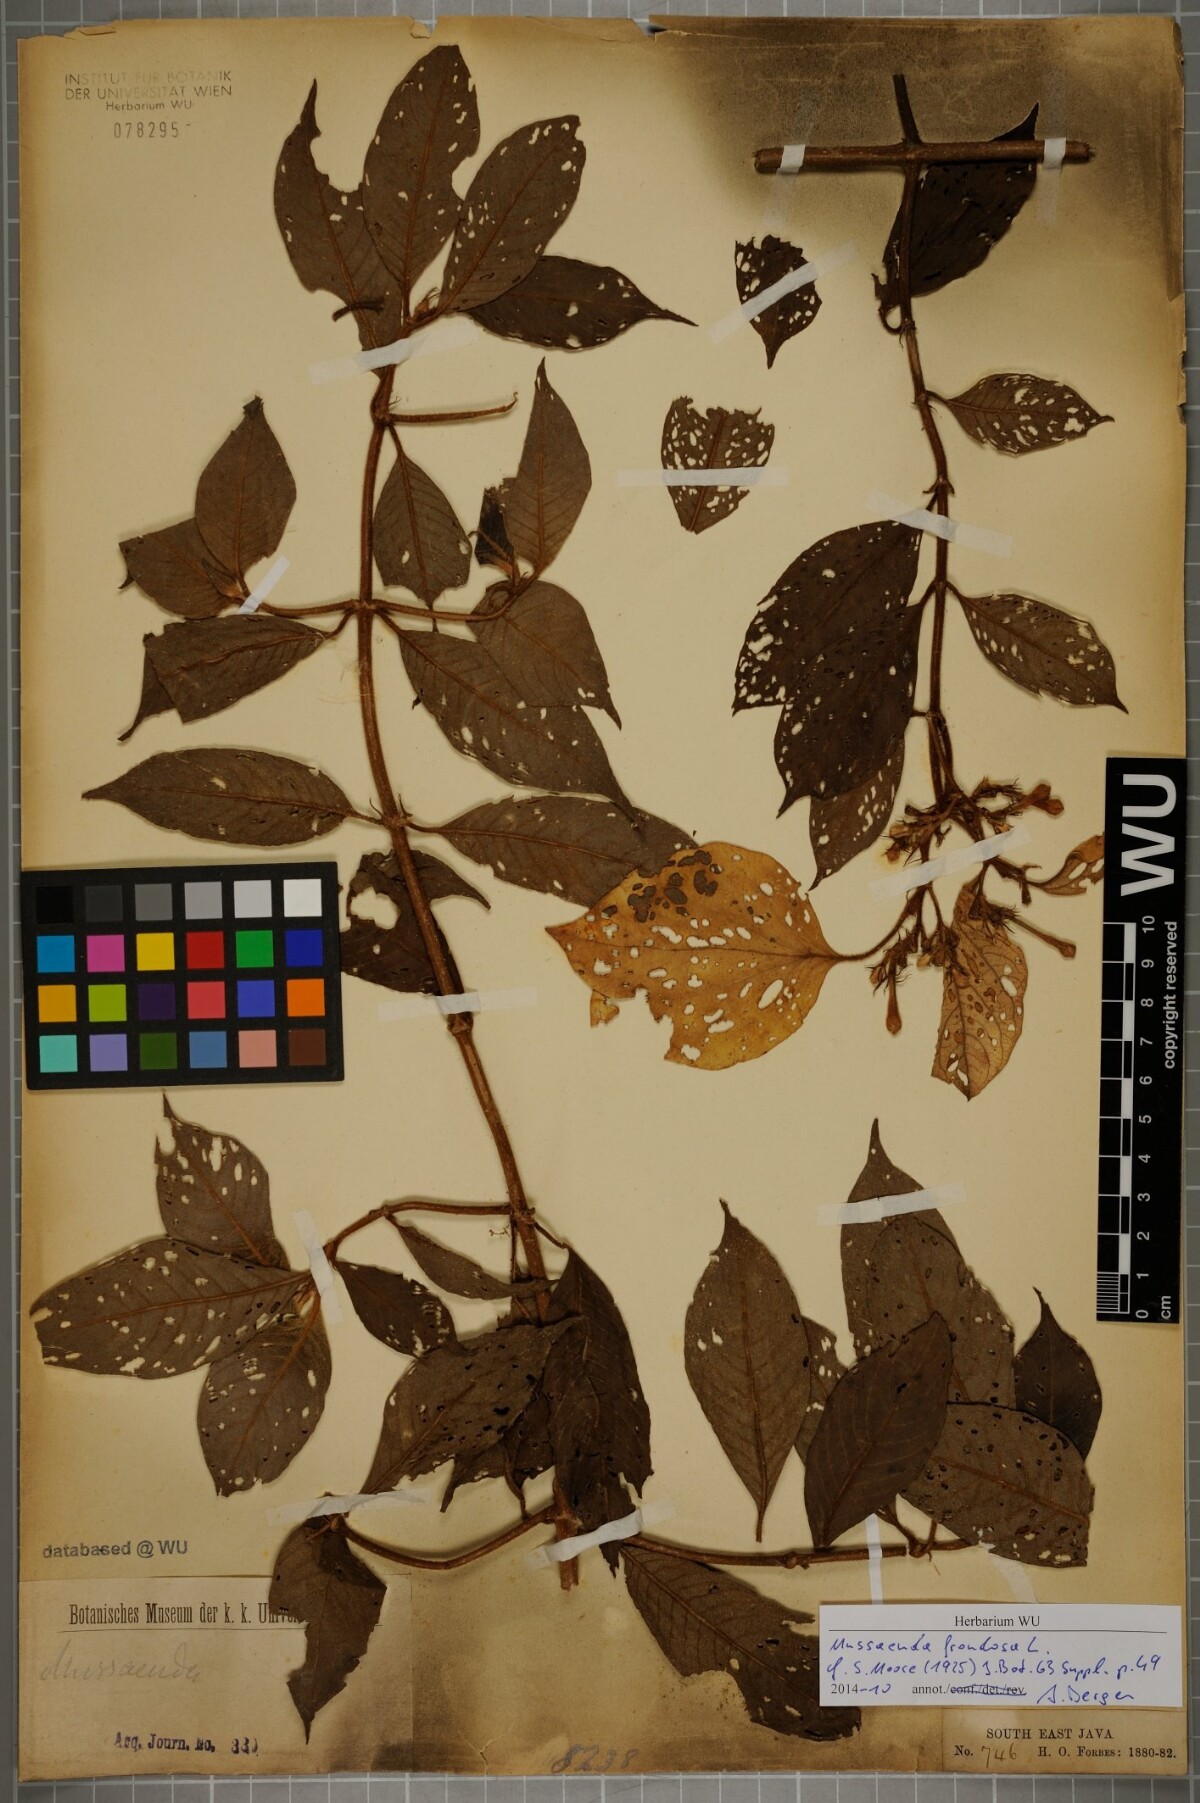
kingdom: Plantae
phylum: Tracheophyta
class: Magnoliopsida
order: Gentianales
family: Rubiaceae
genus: Mussaenda
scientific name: Mussaenda frondosa
